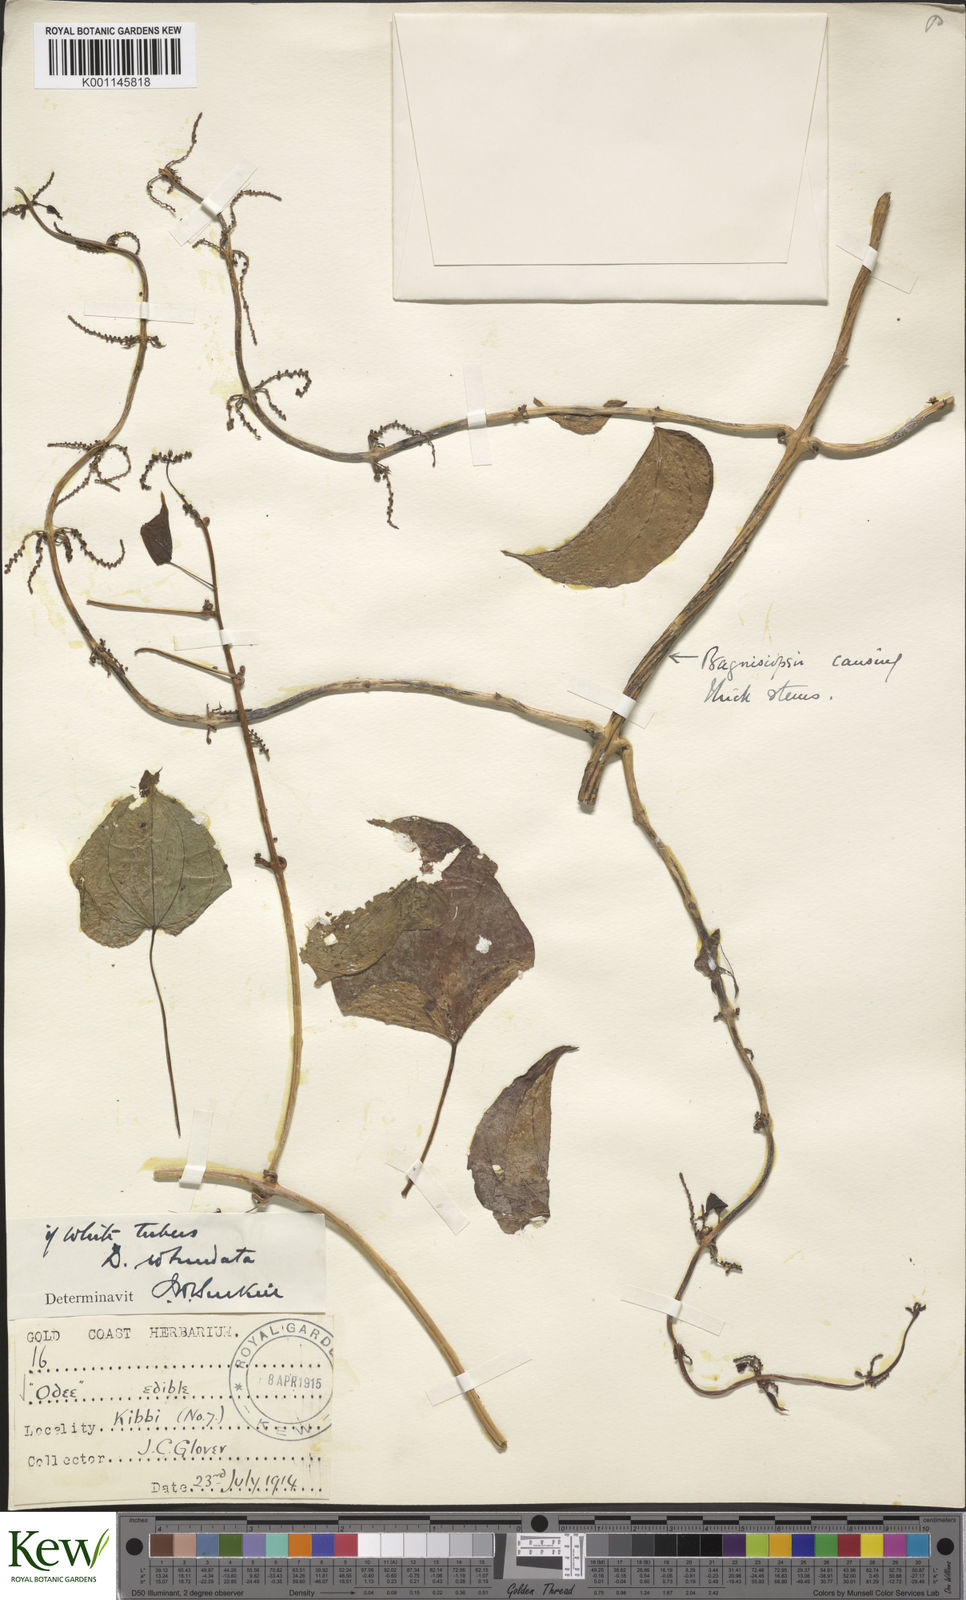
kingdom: Plantae
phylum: Tracheophyta
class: Liliopsida
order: Dioscoreales
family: Dioscoreaceae
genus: Dioscorea
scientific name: Dioscorea cayenensis
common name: Attoto yam
